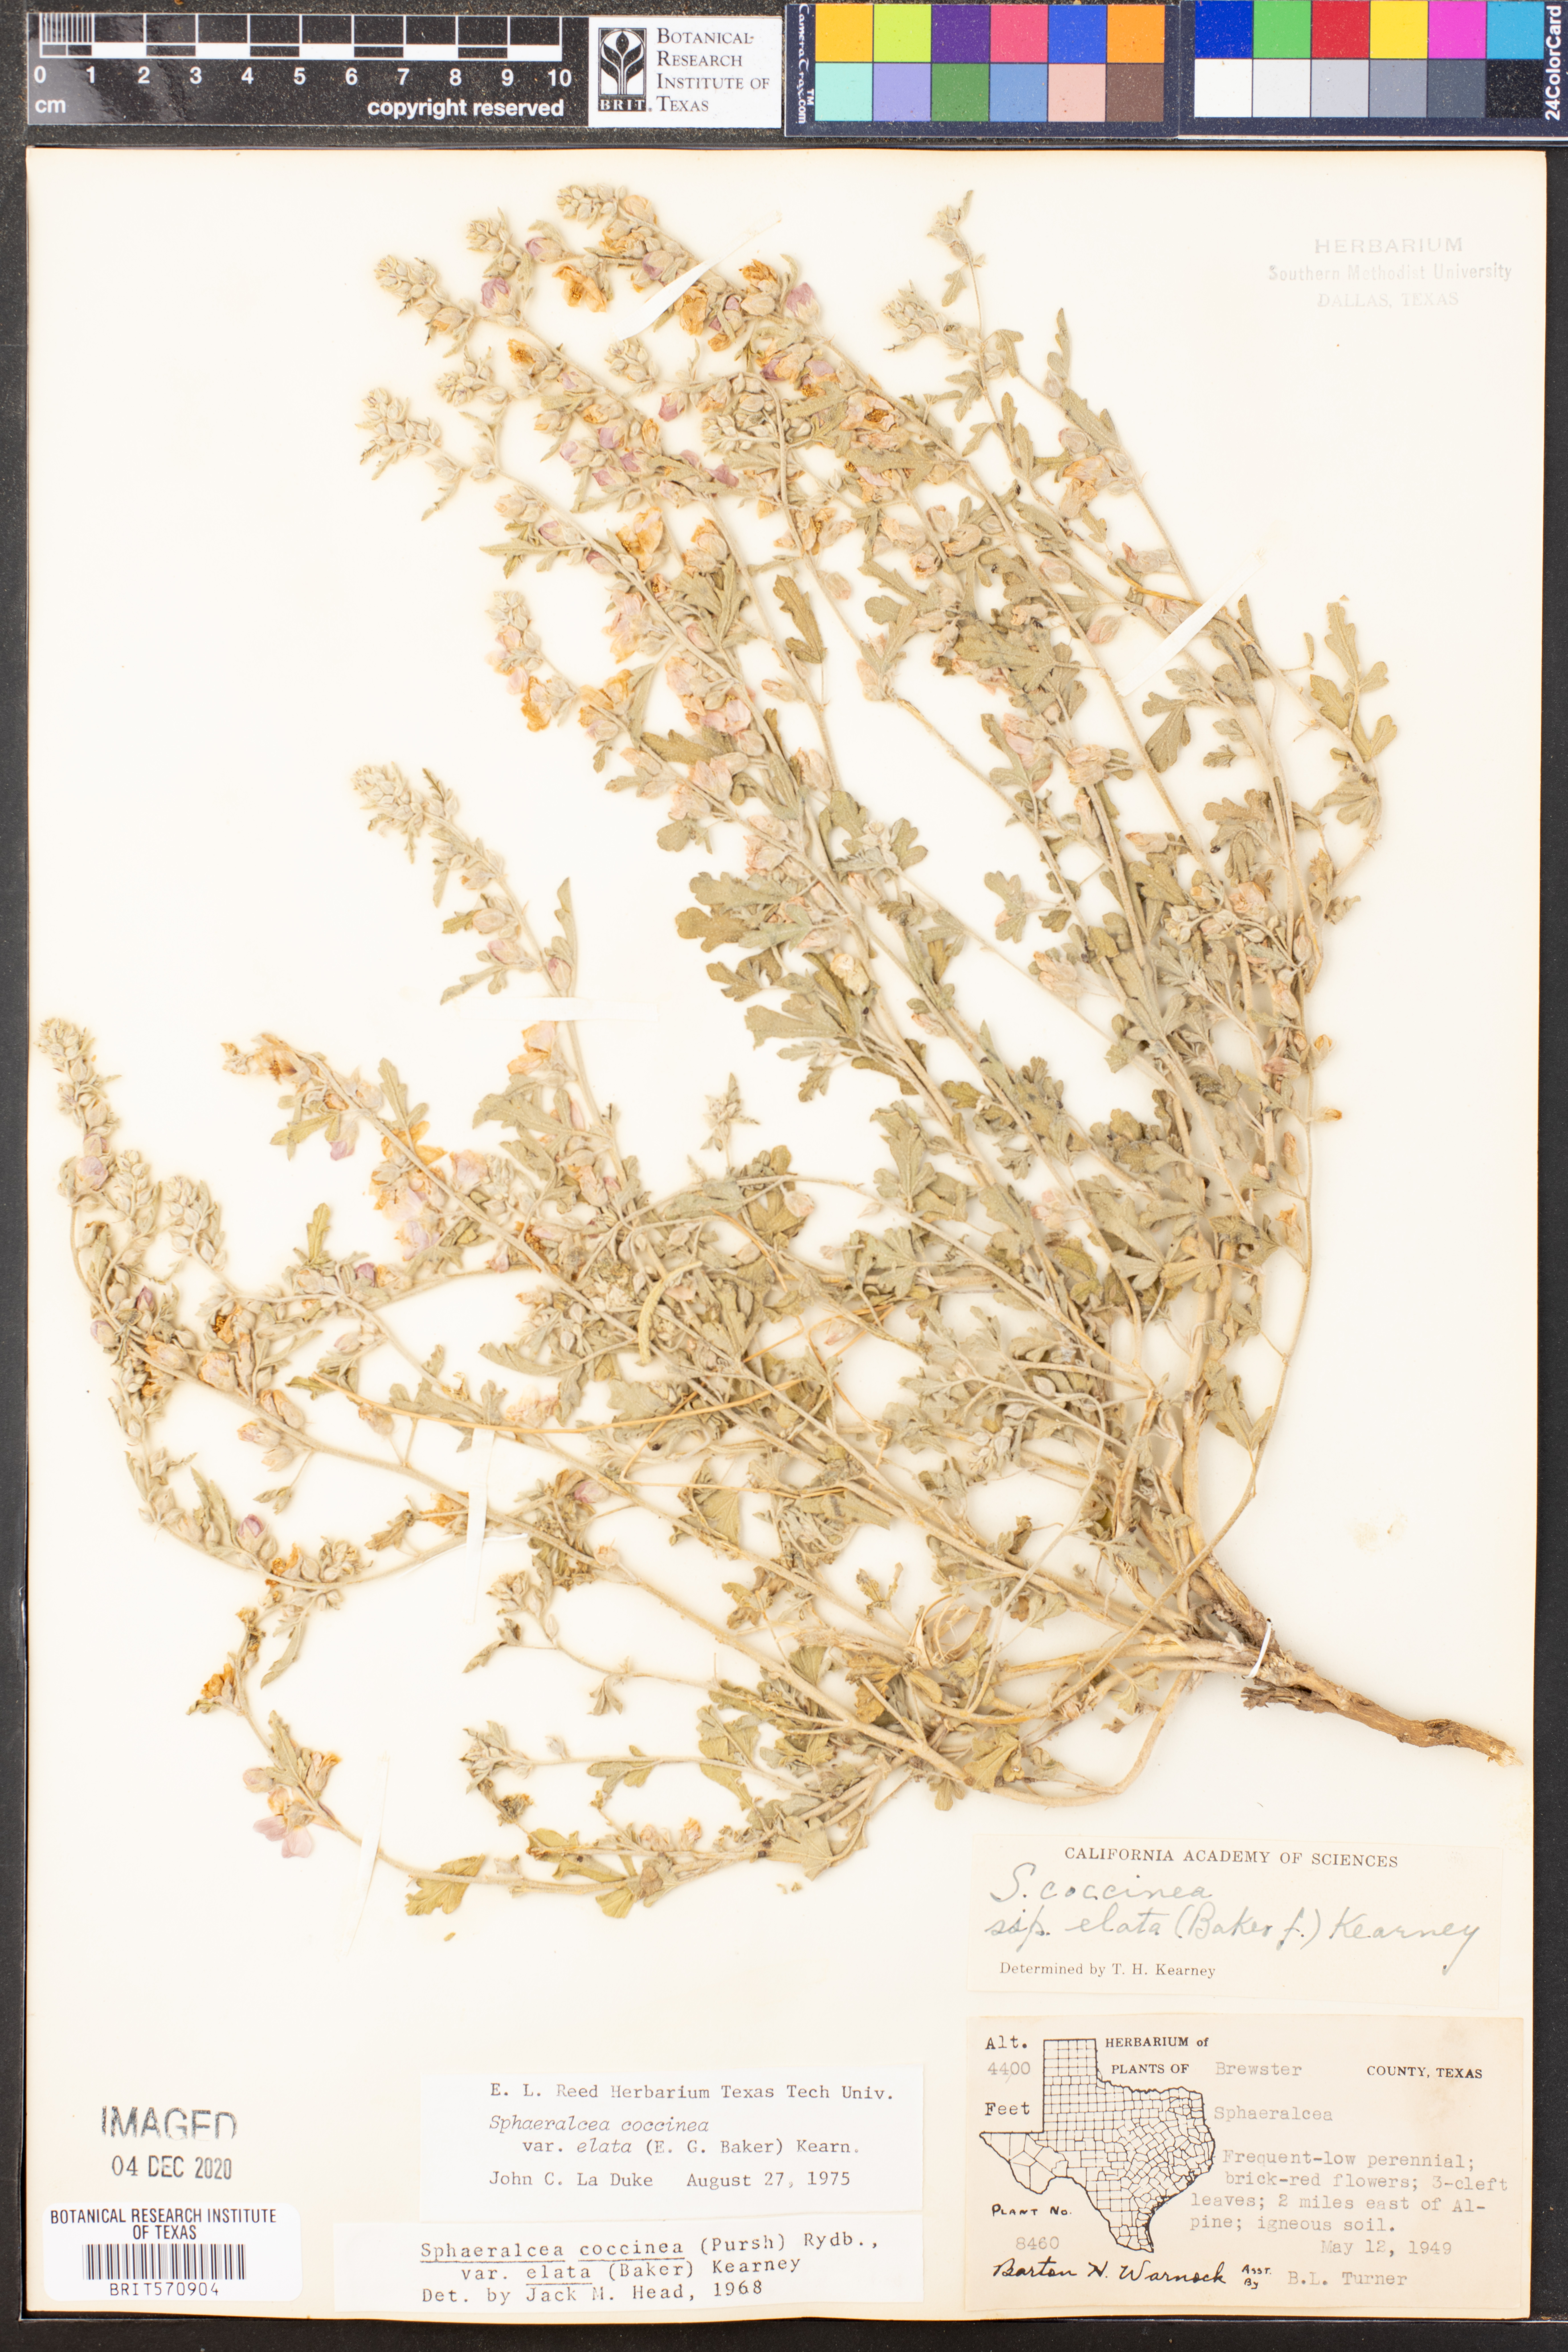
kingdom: Plantae
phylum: Tracheophyta
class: Magnoliopsida
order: Malvales
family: Malvaceae
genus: Sphaeralcea
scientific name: Sphaeralcea coccinea
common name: Moss-rose
